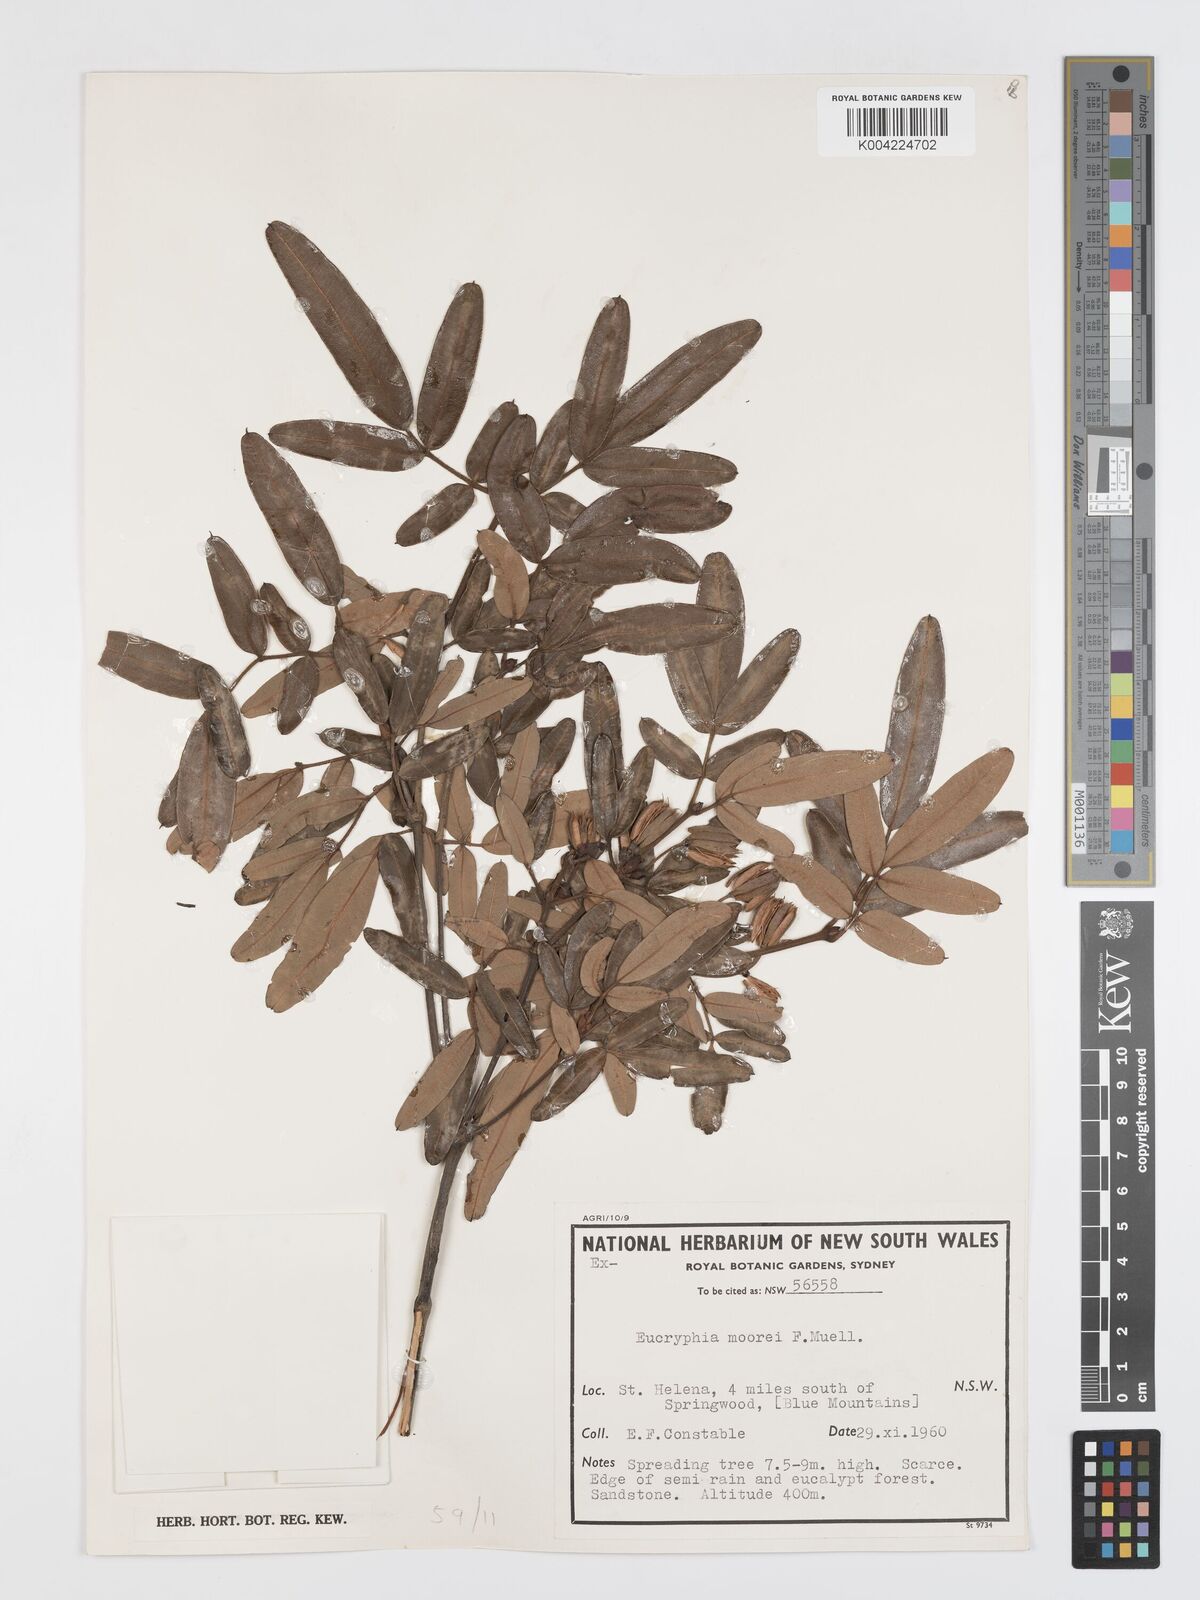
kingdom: Plantae
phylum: Tracheophyta
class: Magnoliopsida
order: Oxalidales
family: Cunoniaceae
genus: Eucryphia
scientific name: Eucryphia moorei
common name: Acacia-plum
